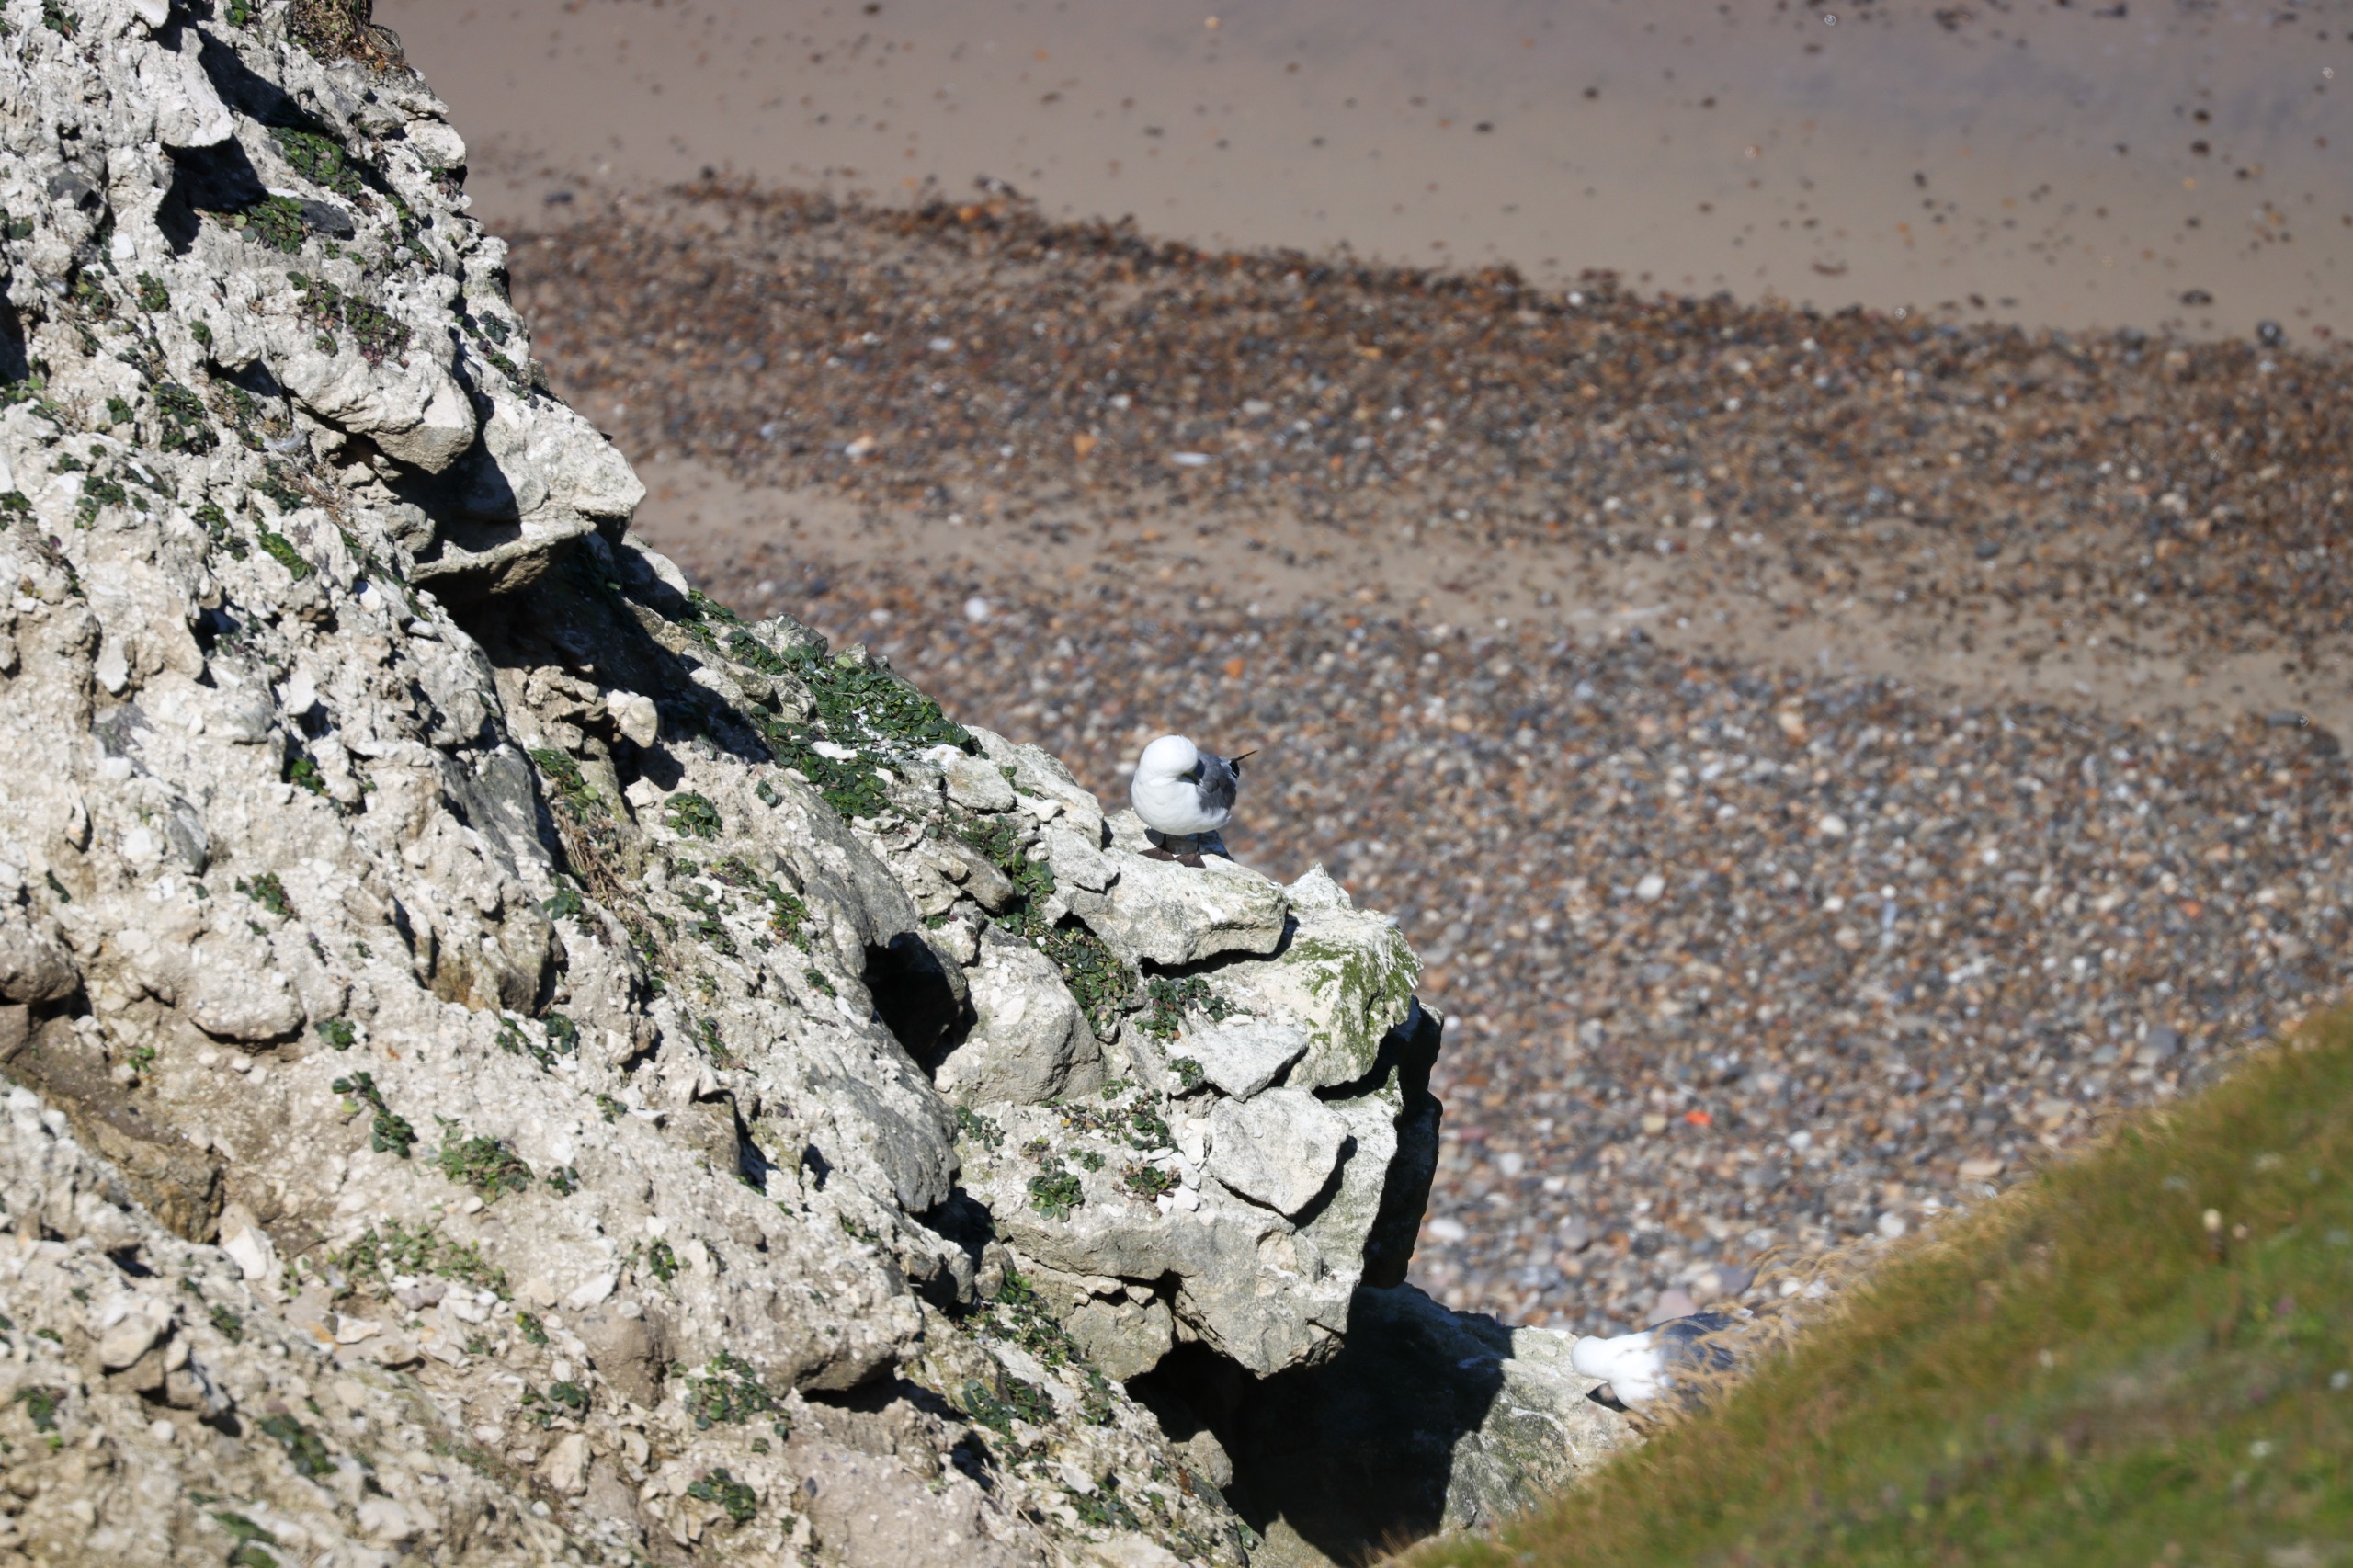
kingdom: Animalia
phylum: Chordata
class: Aves
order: Charadriiformes
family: Laridae
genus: Rissa
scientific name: Rissa tridactyla
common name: Ride
